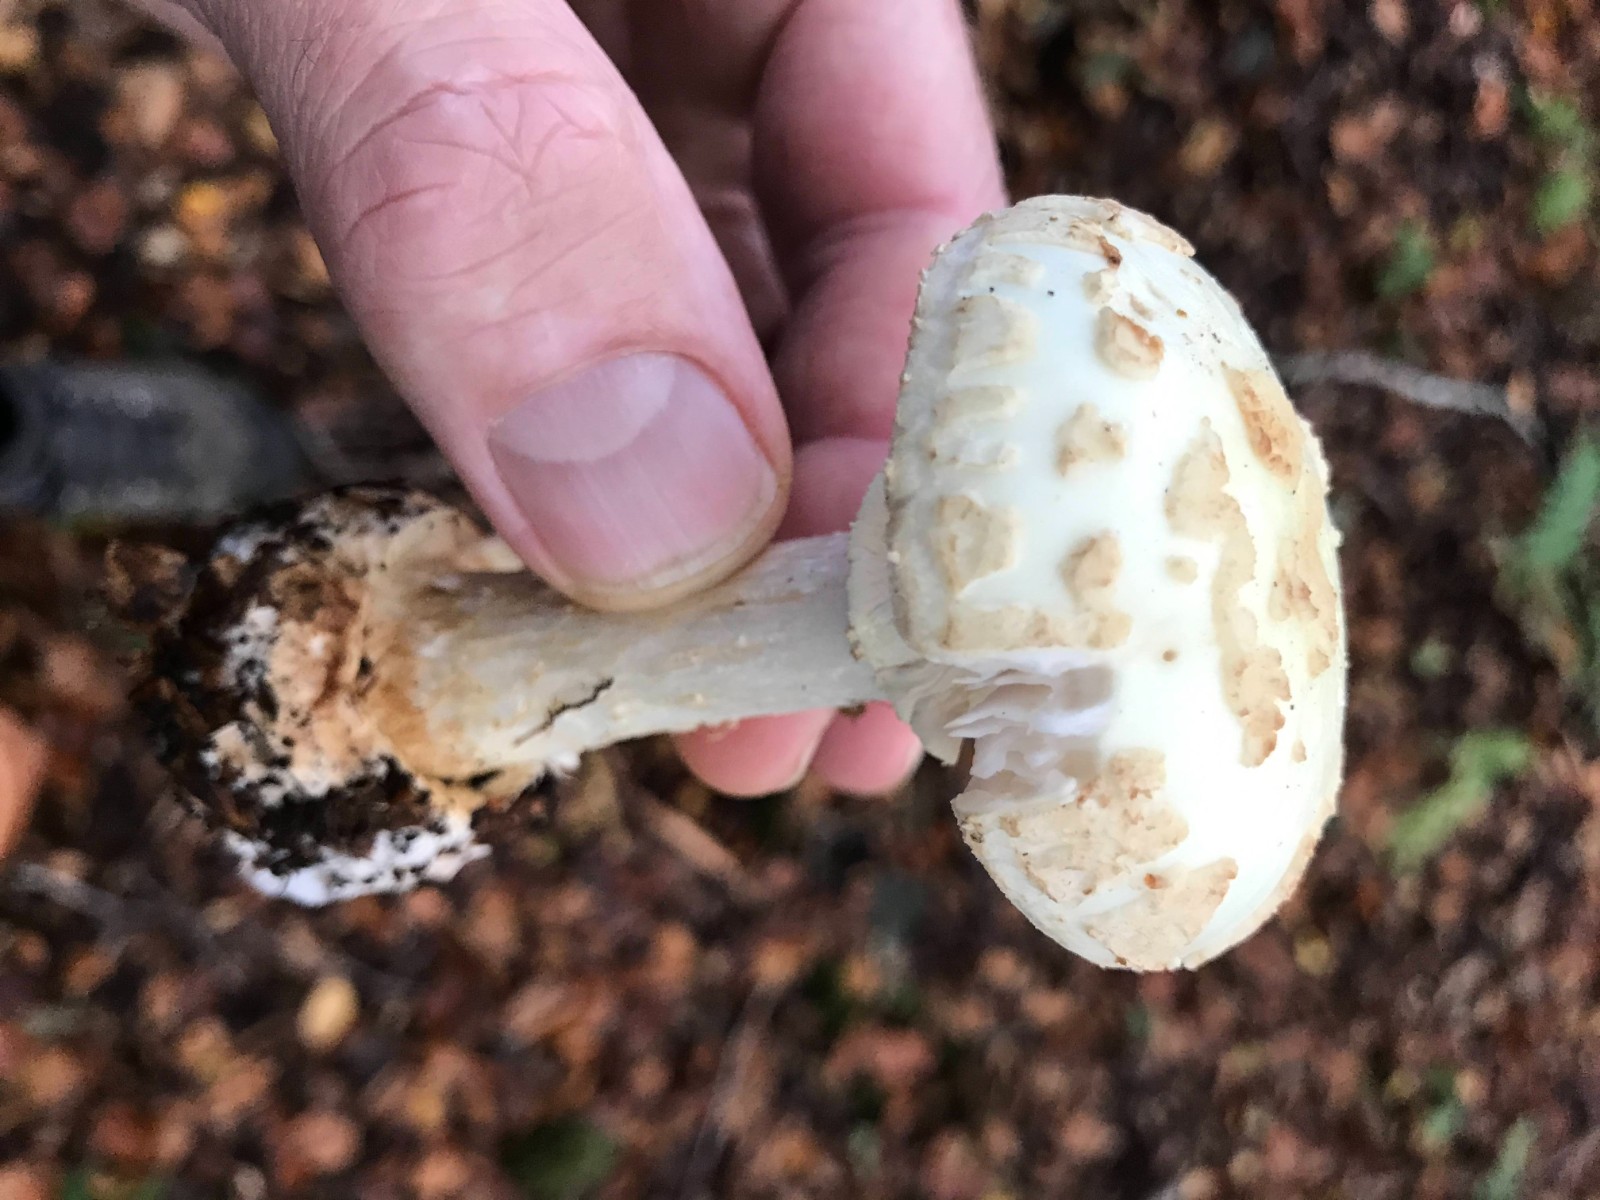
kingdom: Fungi
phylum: Basidiomycota
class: Agaricomycetes
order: Agaricales
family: Amanitaceae
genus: Amanita
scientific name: Amanita citrina
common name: kugleknoldet fluesvamp
